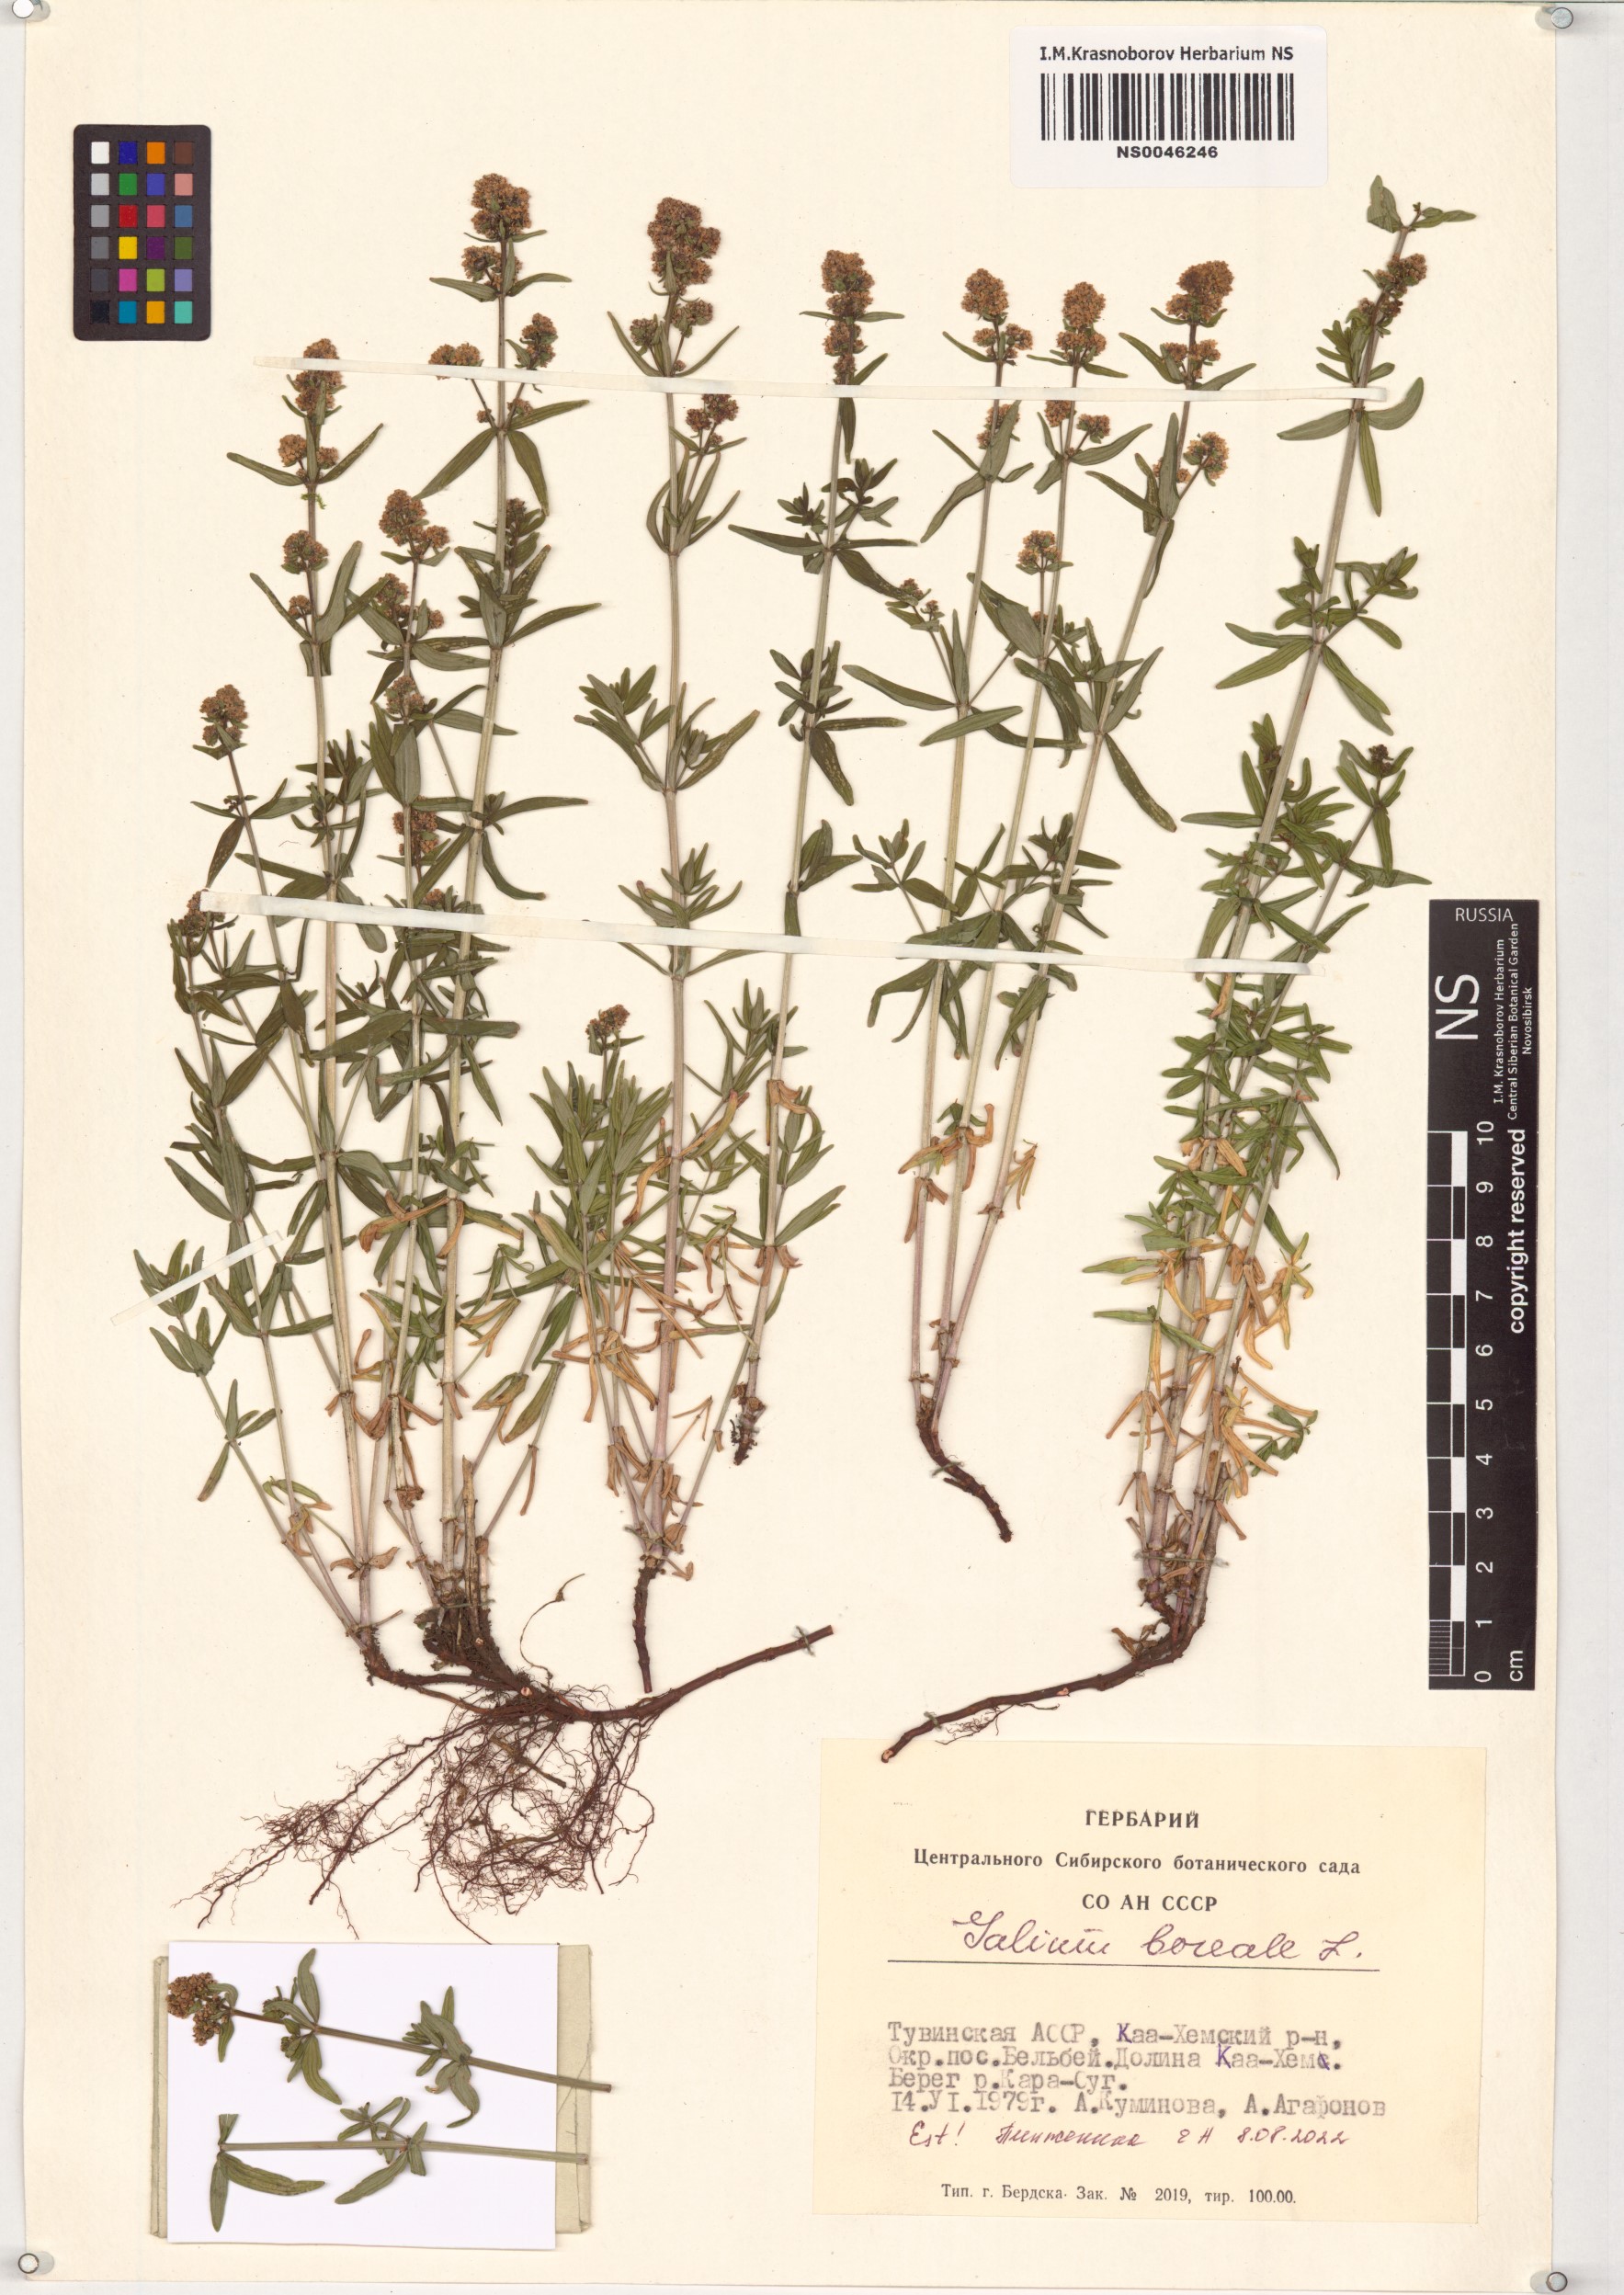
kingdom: Plantae
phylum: Tracheophyta
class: Magnoliopsida
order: Gentianales
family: Rubiaceae
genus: Galium
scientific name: Galium boreale
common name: Northern bedstraw
